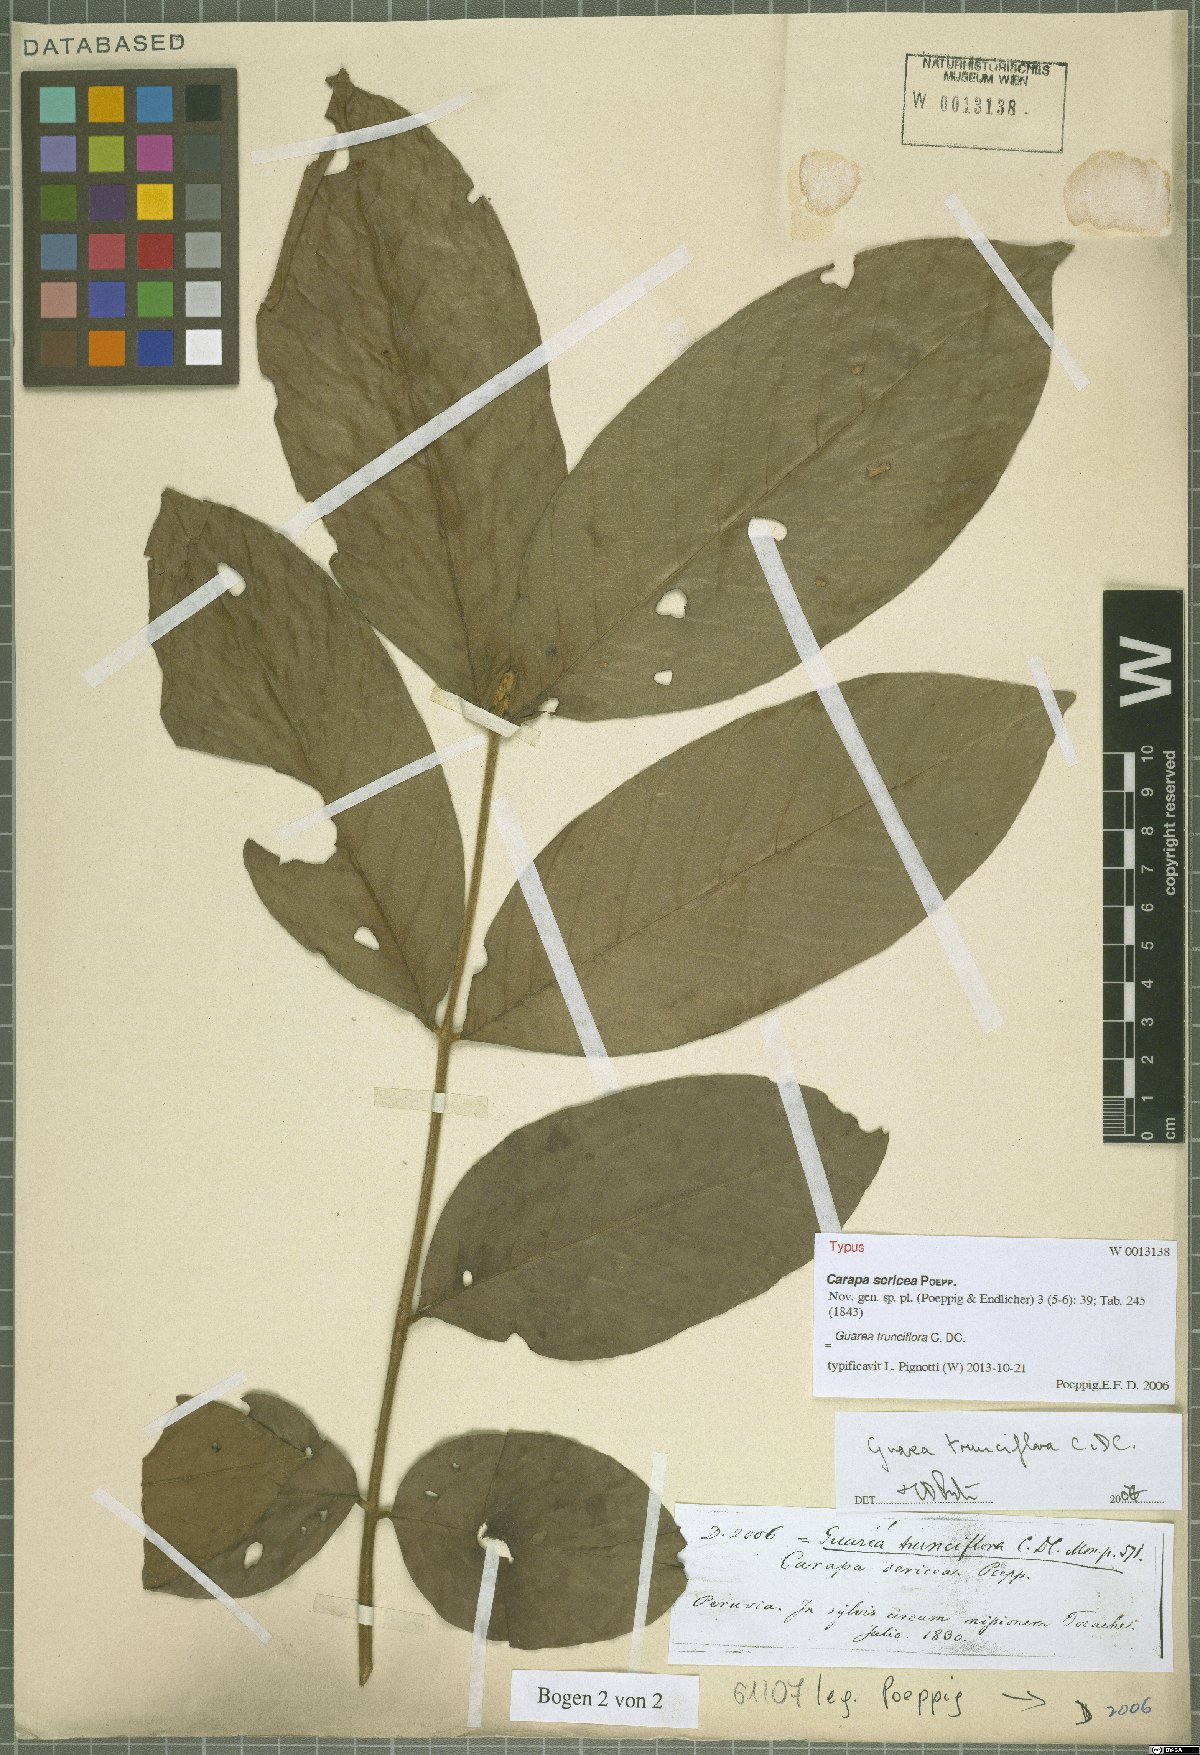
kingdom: Plantae
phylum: Tracheophyta
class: Magnoliopsida
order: Sapindales
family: Meliaceae
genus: Guarea
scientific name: Guarea trunciflora
